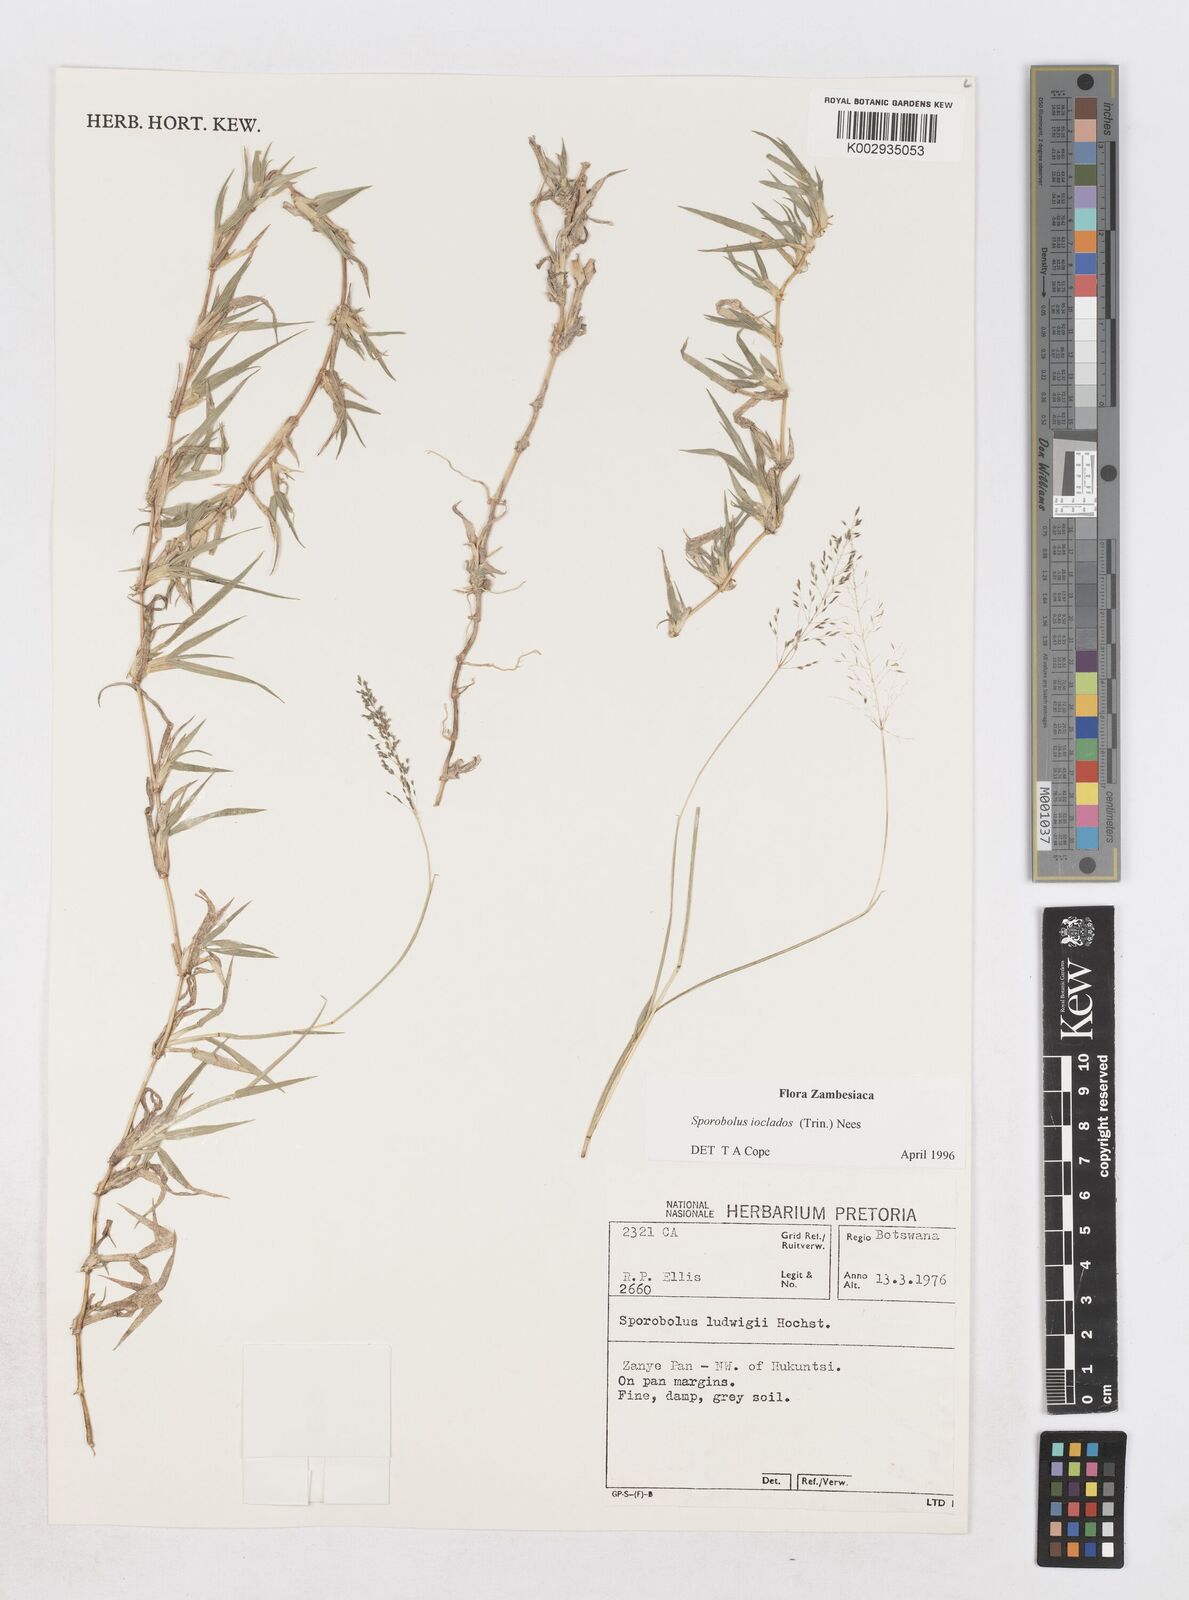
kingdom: Plantae
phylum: Tracheophyta
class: Liliopsida
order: Poales
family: Poaceae
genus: Sporobolus
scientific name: Sporobolus ioclados
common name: Pan dropseed
